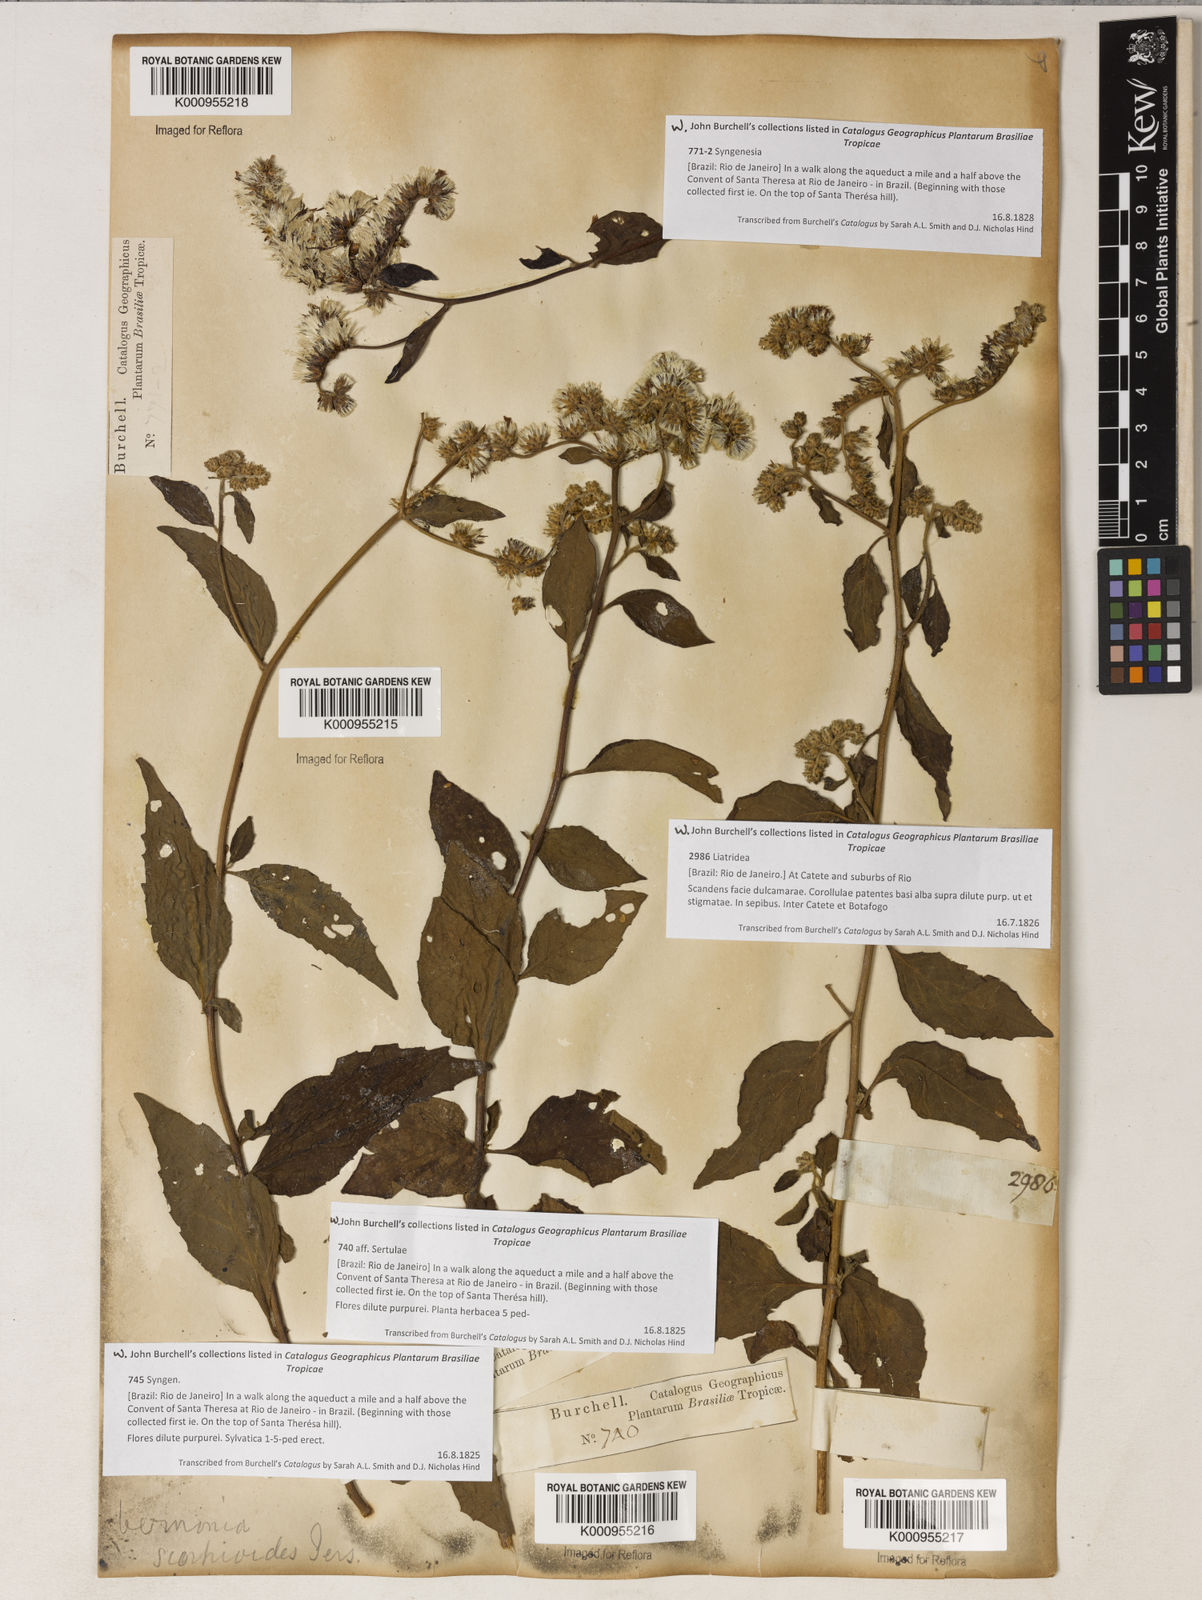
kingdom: Plantae
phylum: Tracheophyta
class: Magnoliopsida
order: Asterales
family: Asteraceae
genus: Cyrtocymura
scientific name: Cyrtocymura scorpioides
